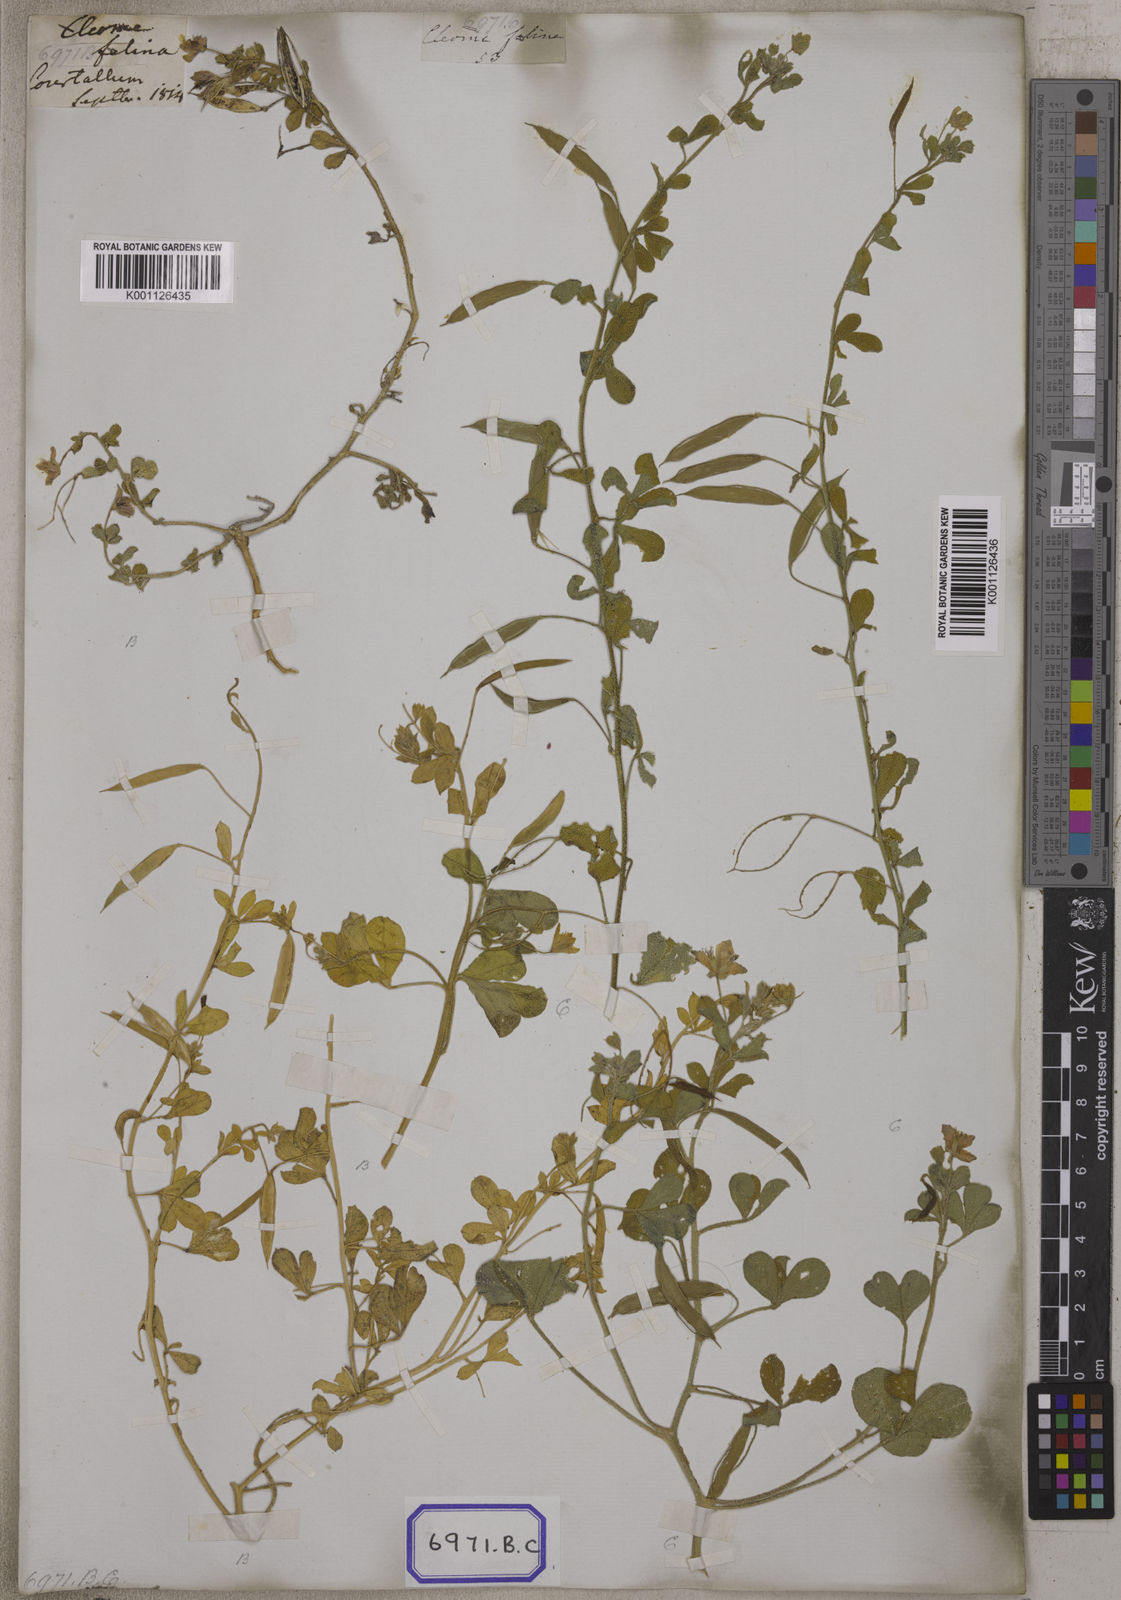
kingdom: Plantae
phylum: Tracheophyta
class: Magnoliopsida
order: Brassicales
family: Cleomaceae
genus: Corynandra
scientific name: Corynandra felina
